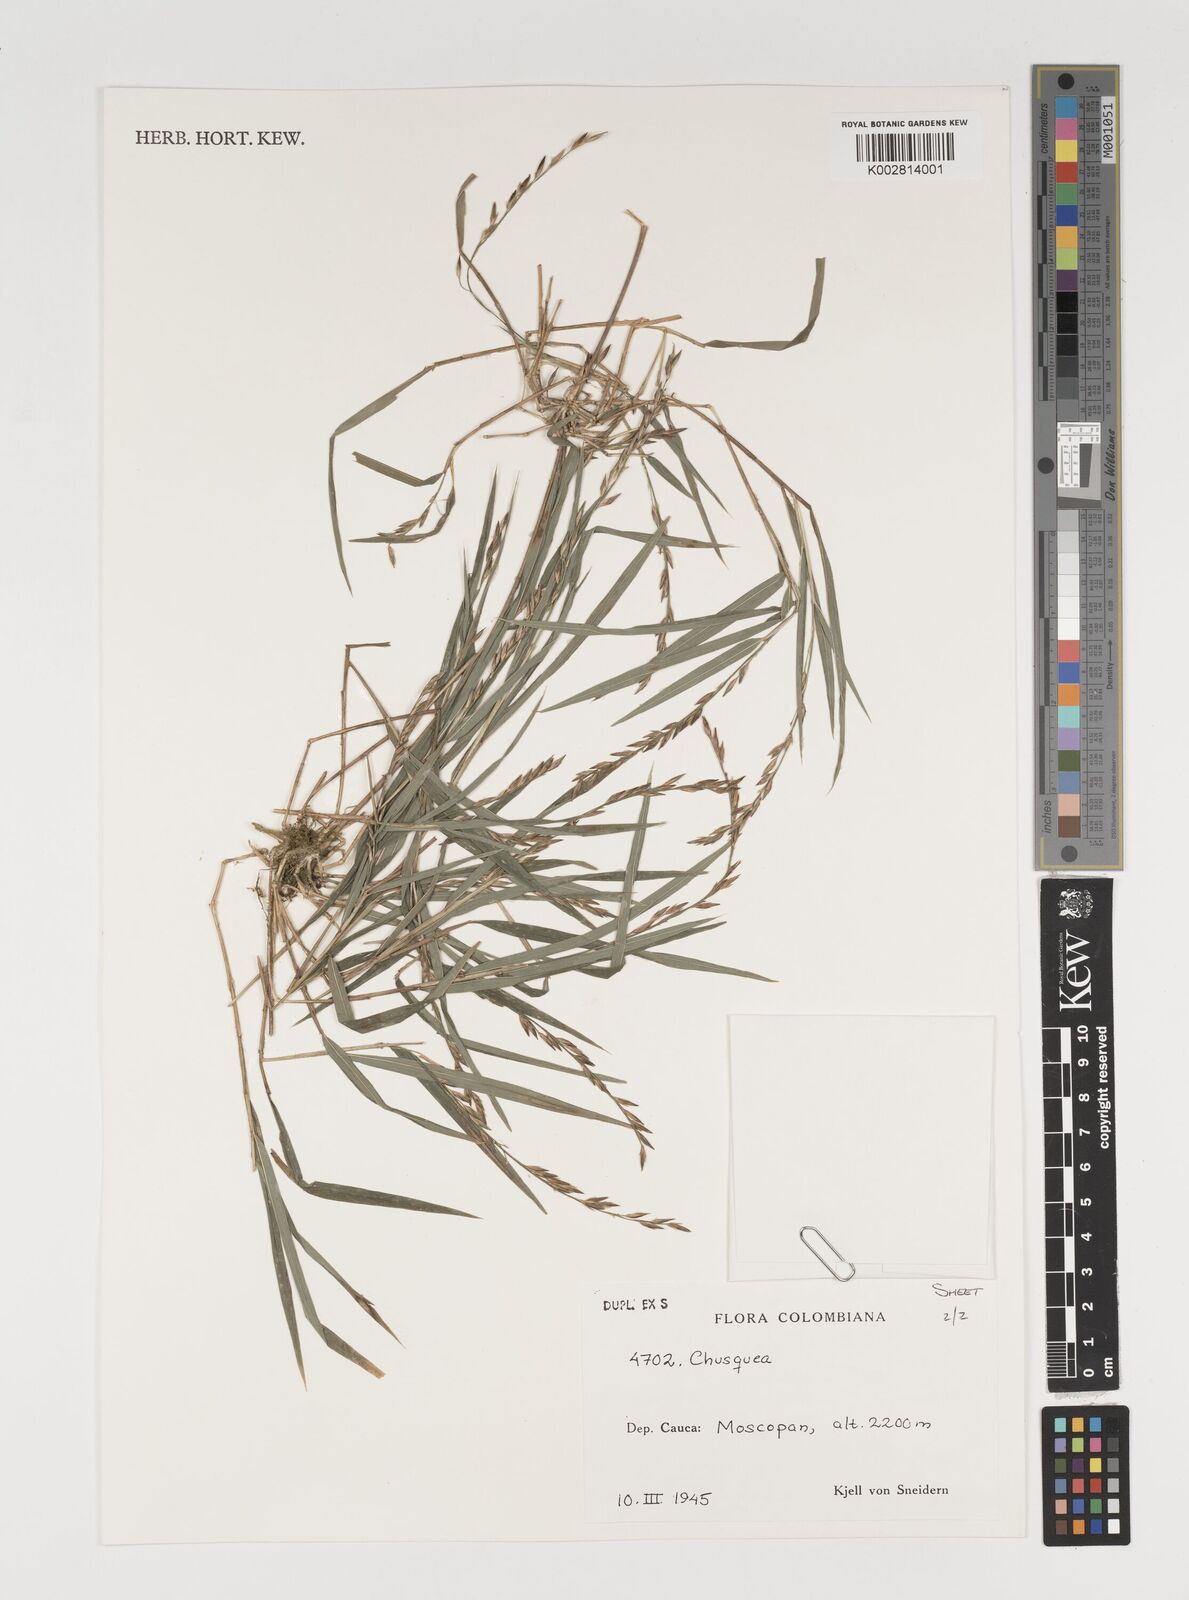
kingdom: Plantae
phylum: Tracheophyta
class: Liliopsida
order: Poales
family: Poaceae
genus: Chusquea
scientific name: Chusquea
